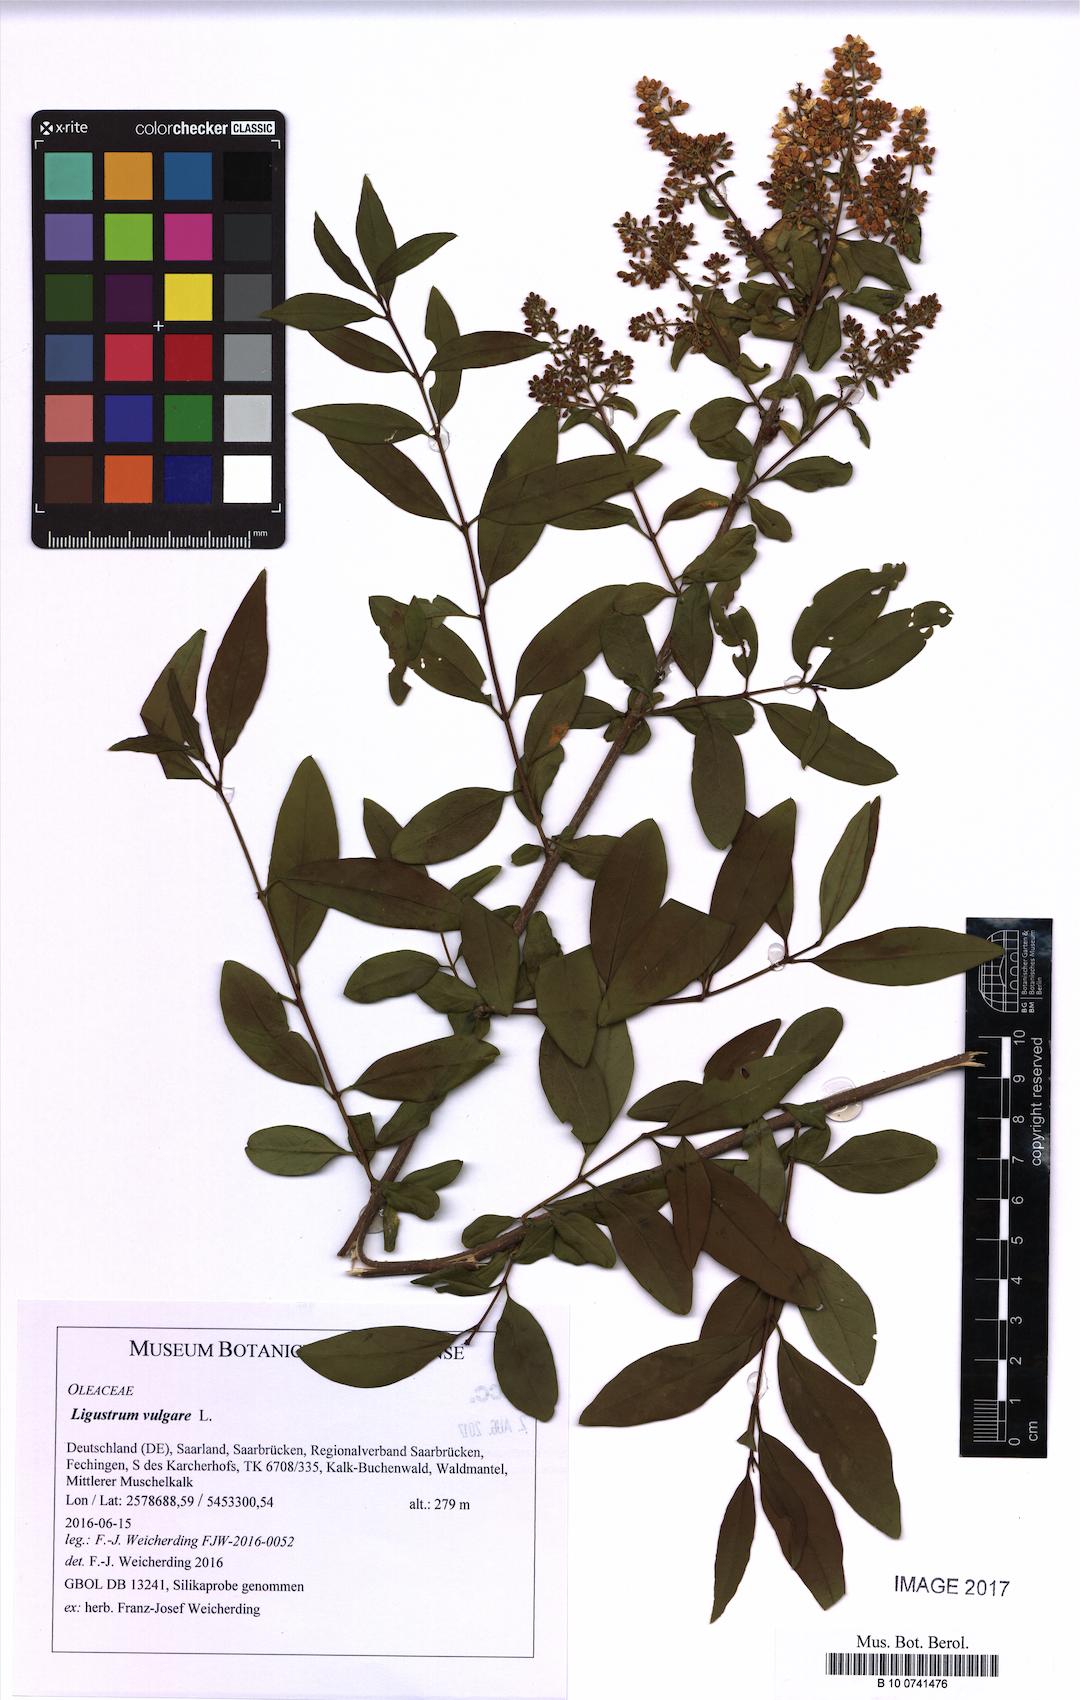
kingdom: Plantae
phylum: Tracheophyta
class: Magnoliopsida
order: Lamiales
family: Oleaceae
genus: Ligustrum
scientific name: Ligustrum vulgare
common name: Wild privet
